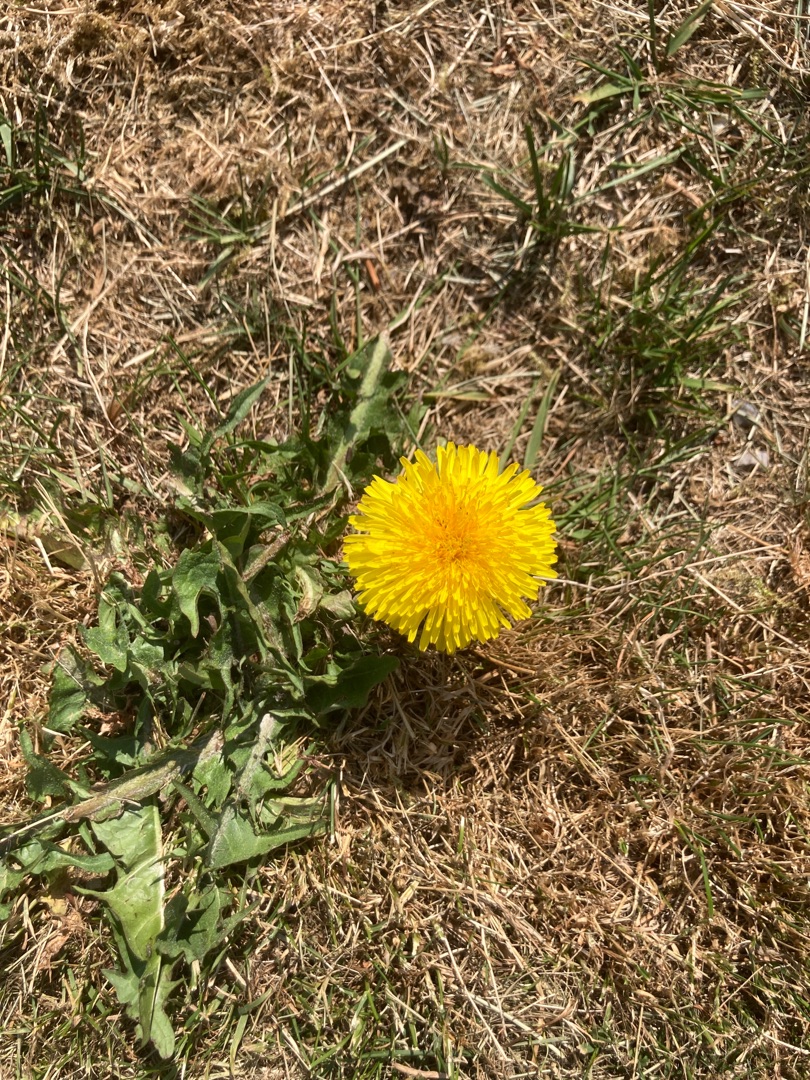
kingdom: Plantae
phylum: Tracheophyta
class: Magnoliopsida
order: Asterales
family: Asteraceae
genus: Taraxacum
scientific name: Taraxacum
